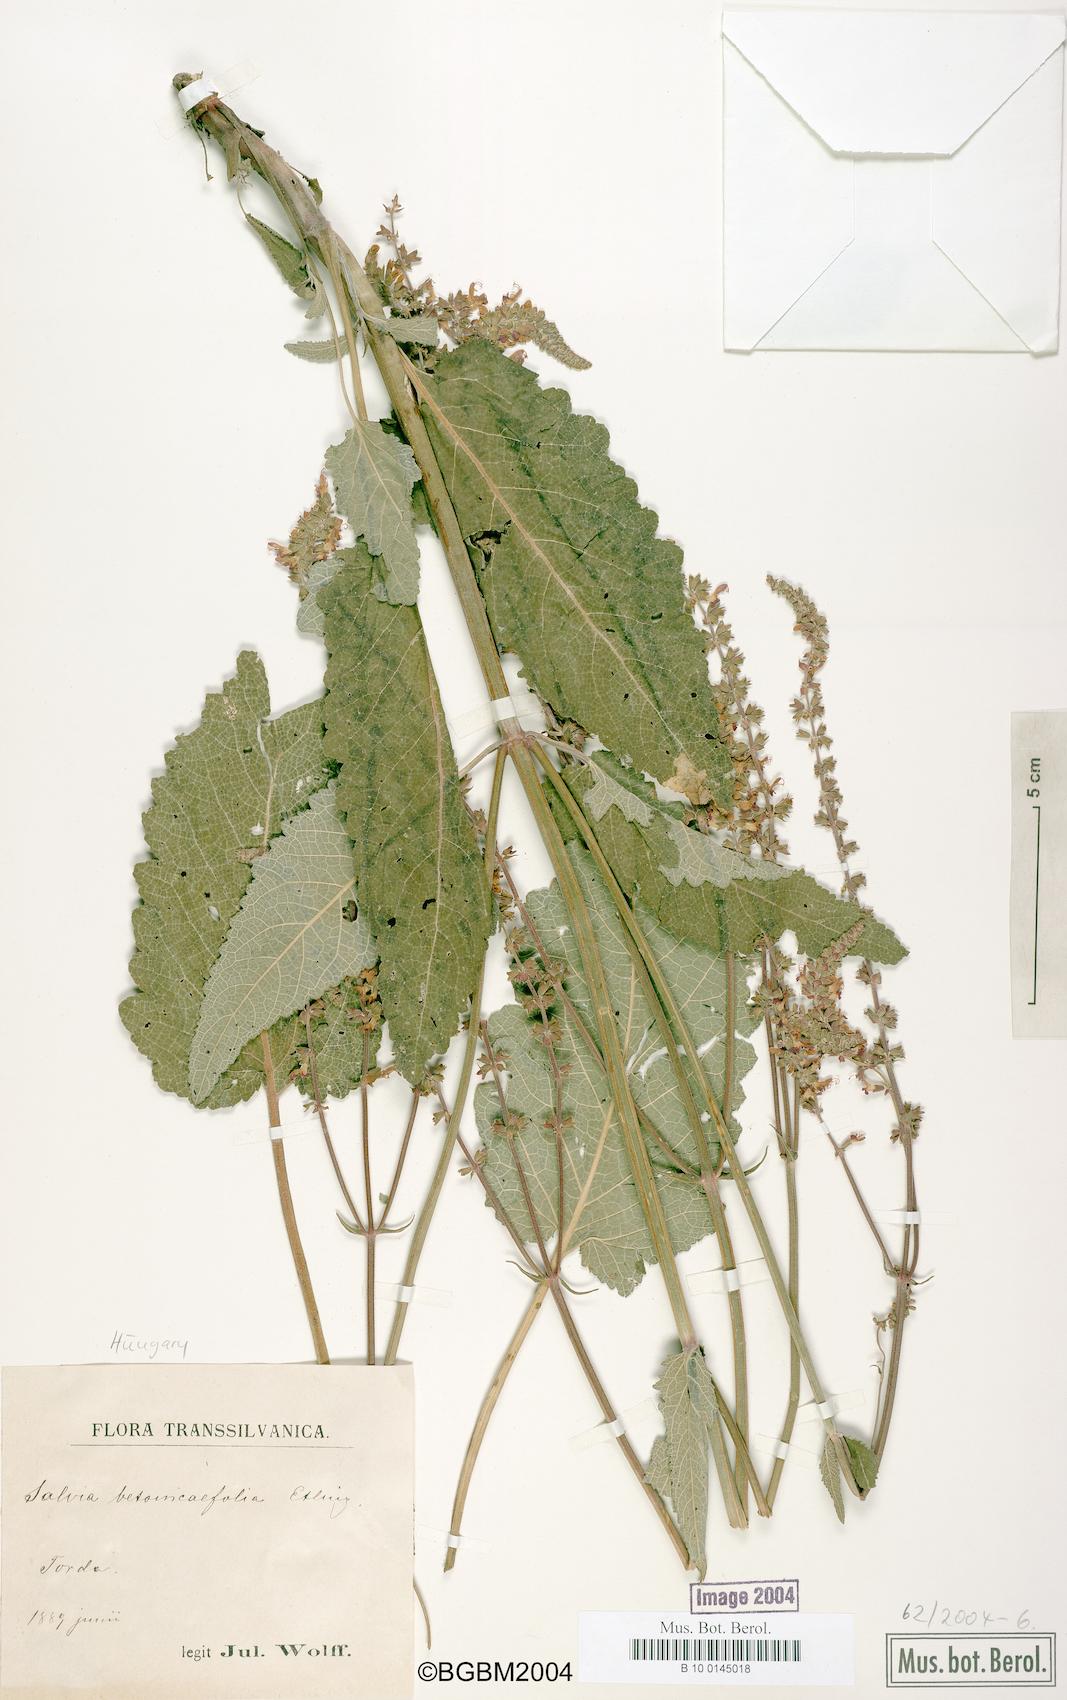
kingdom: Plantae
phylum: Tracheophyta
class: Magnoliopsida
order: Lamiales
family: Lamiaceae
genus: Salvia
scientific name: Salvia
